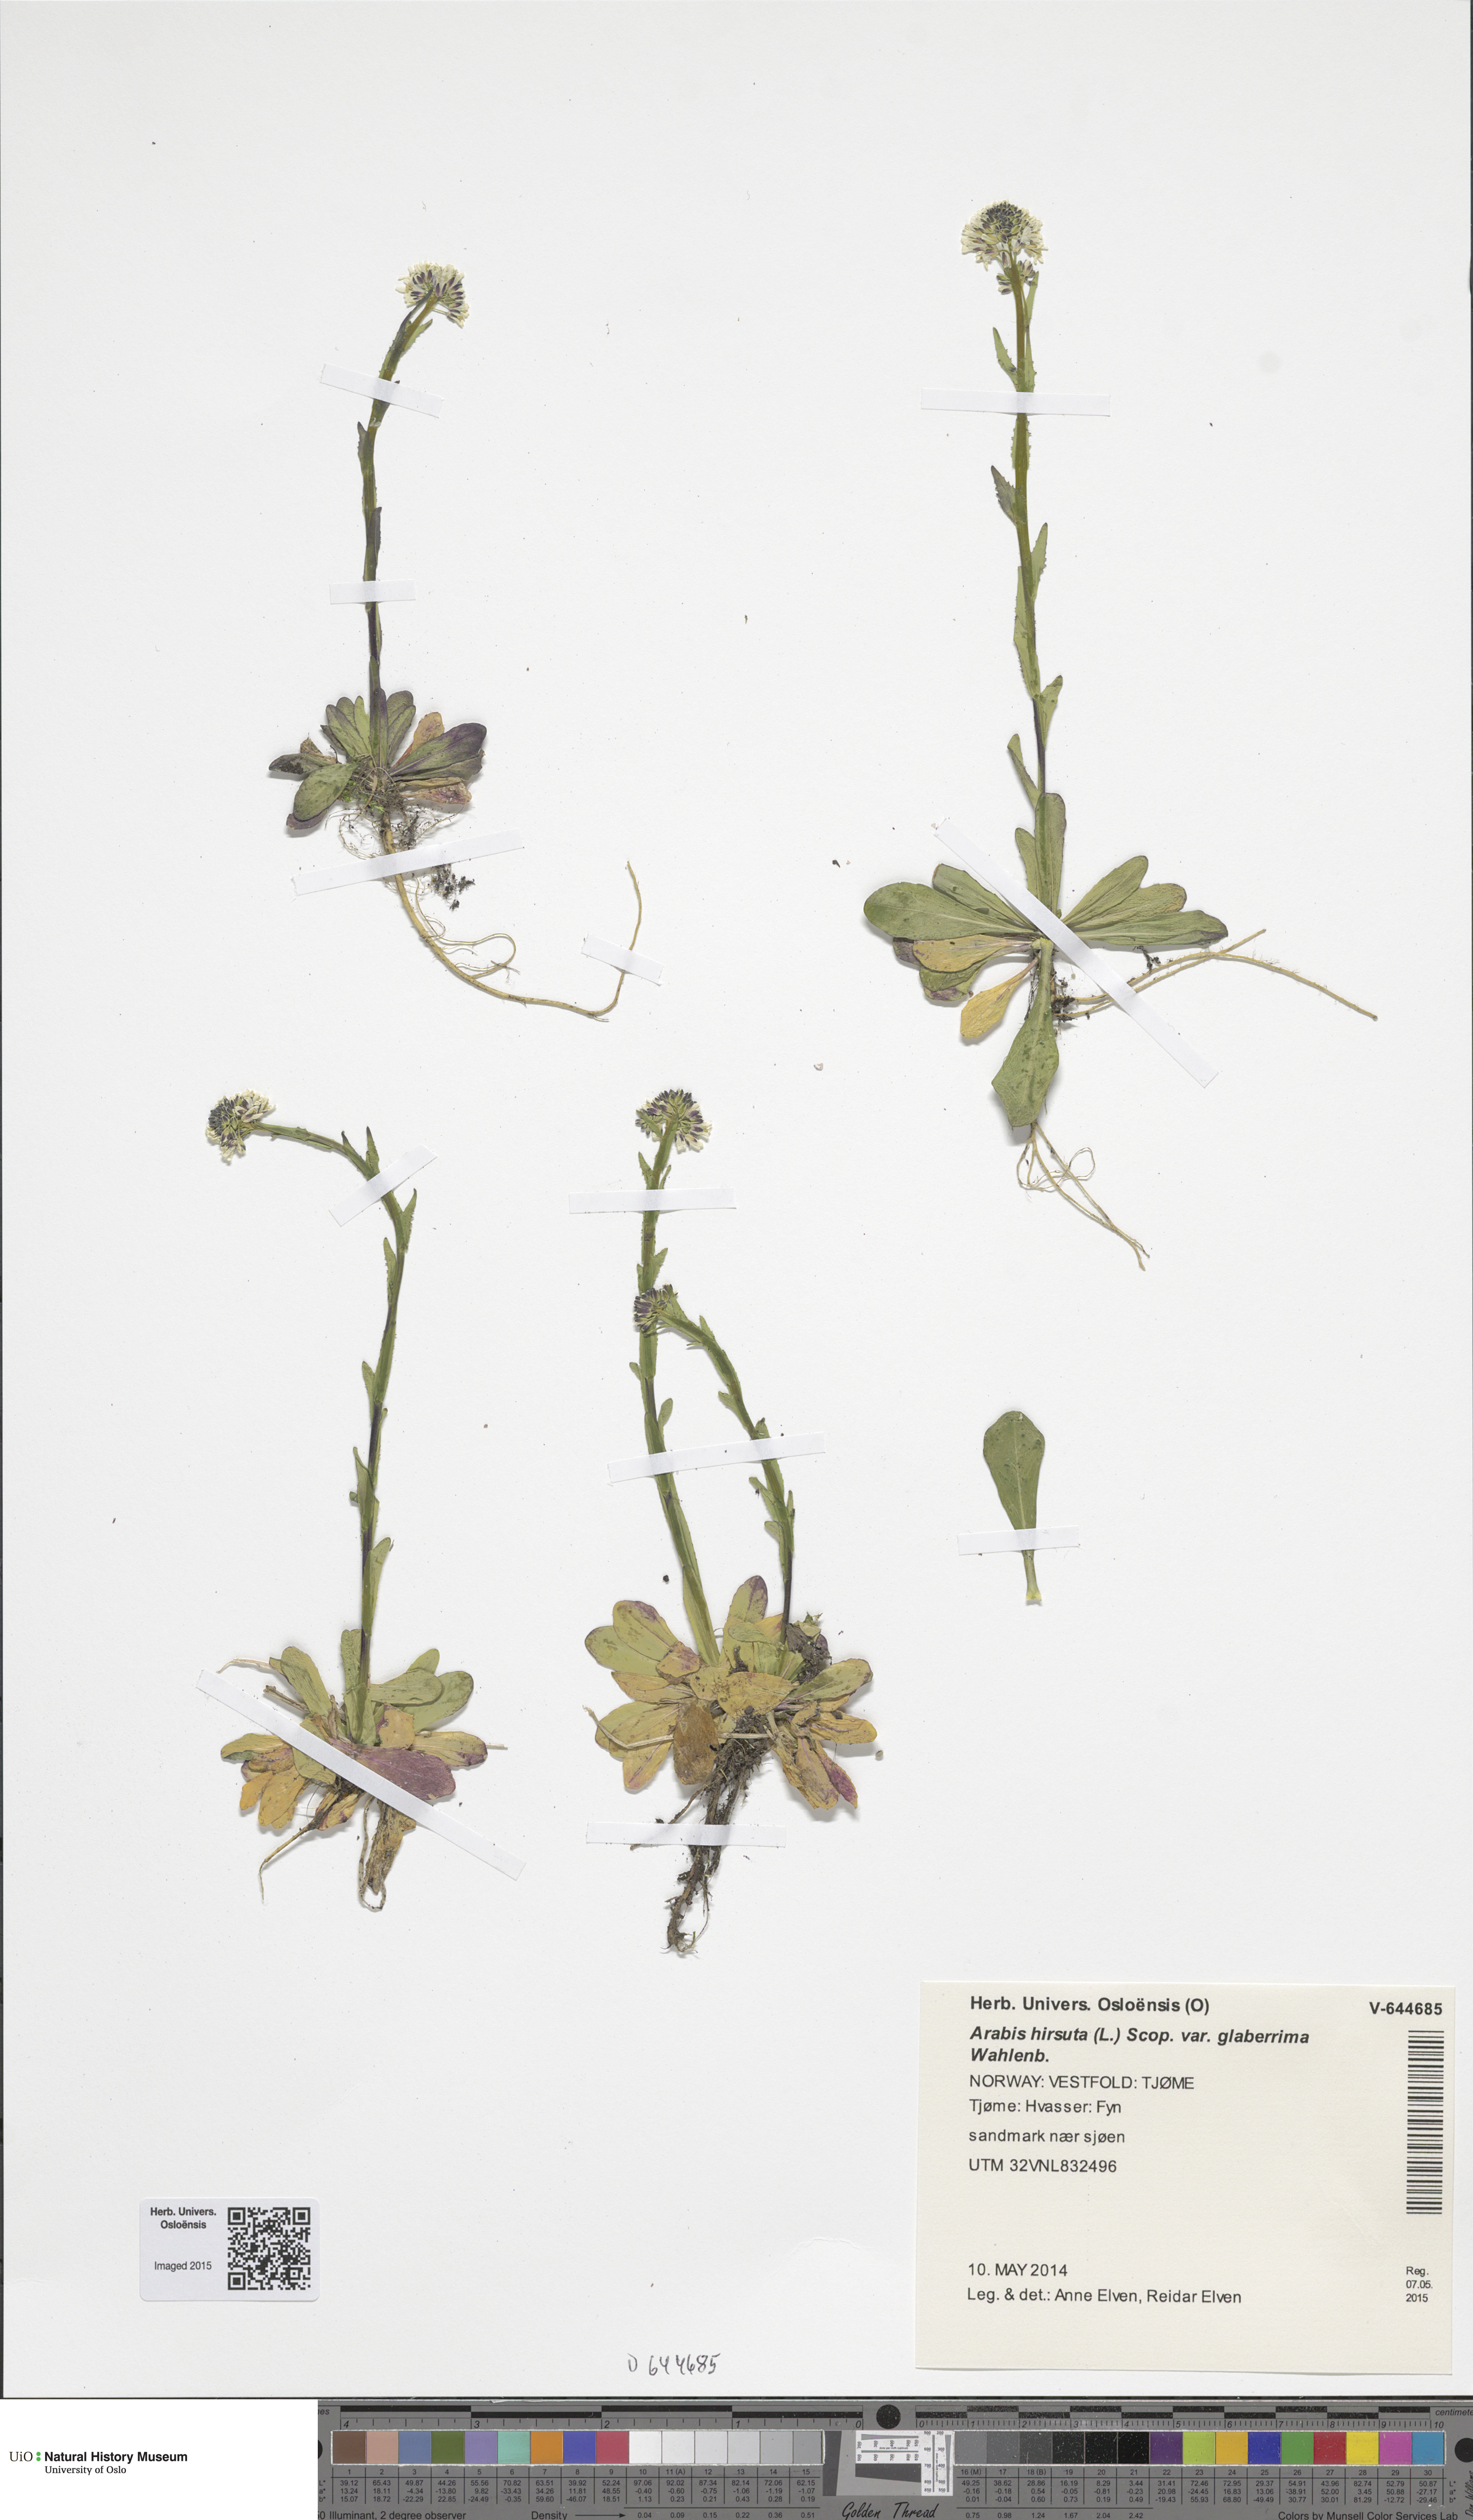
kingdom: Plantae
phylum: Tracheophyta
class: Magnoliopsida
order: Brassicales
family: Brassicaceae
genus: Arabis
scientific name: Arabis hirsuta
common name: Hairy rock-cress
